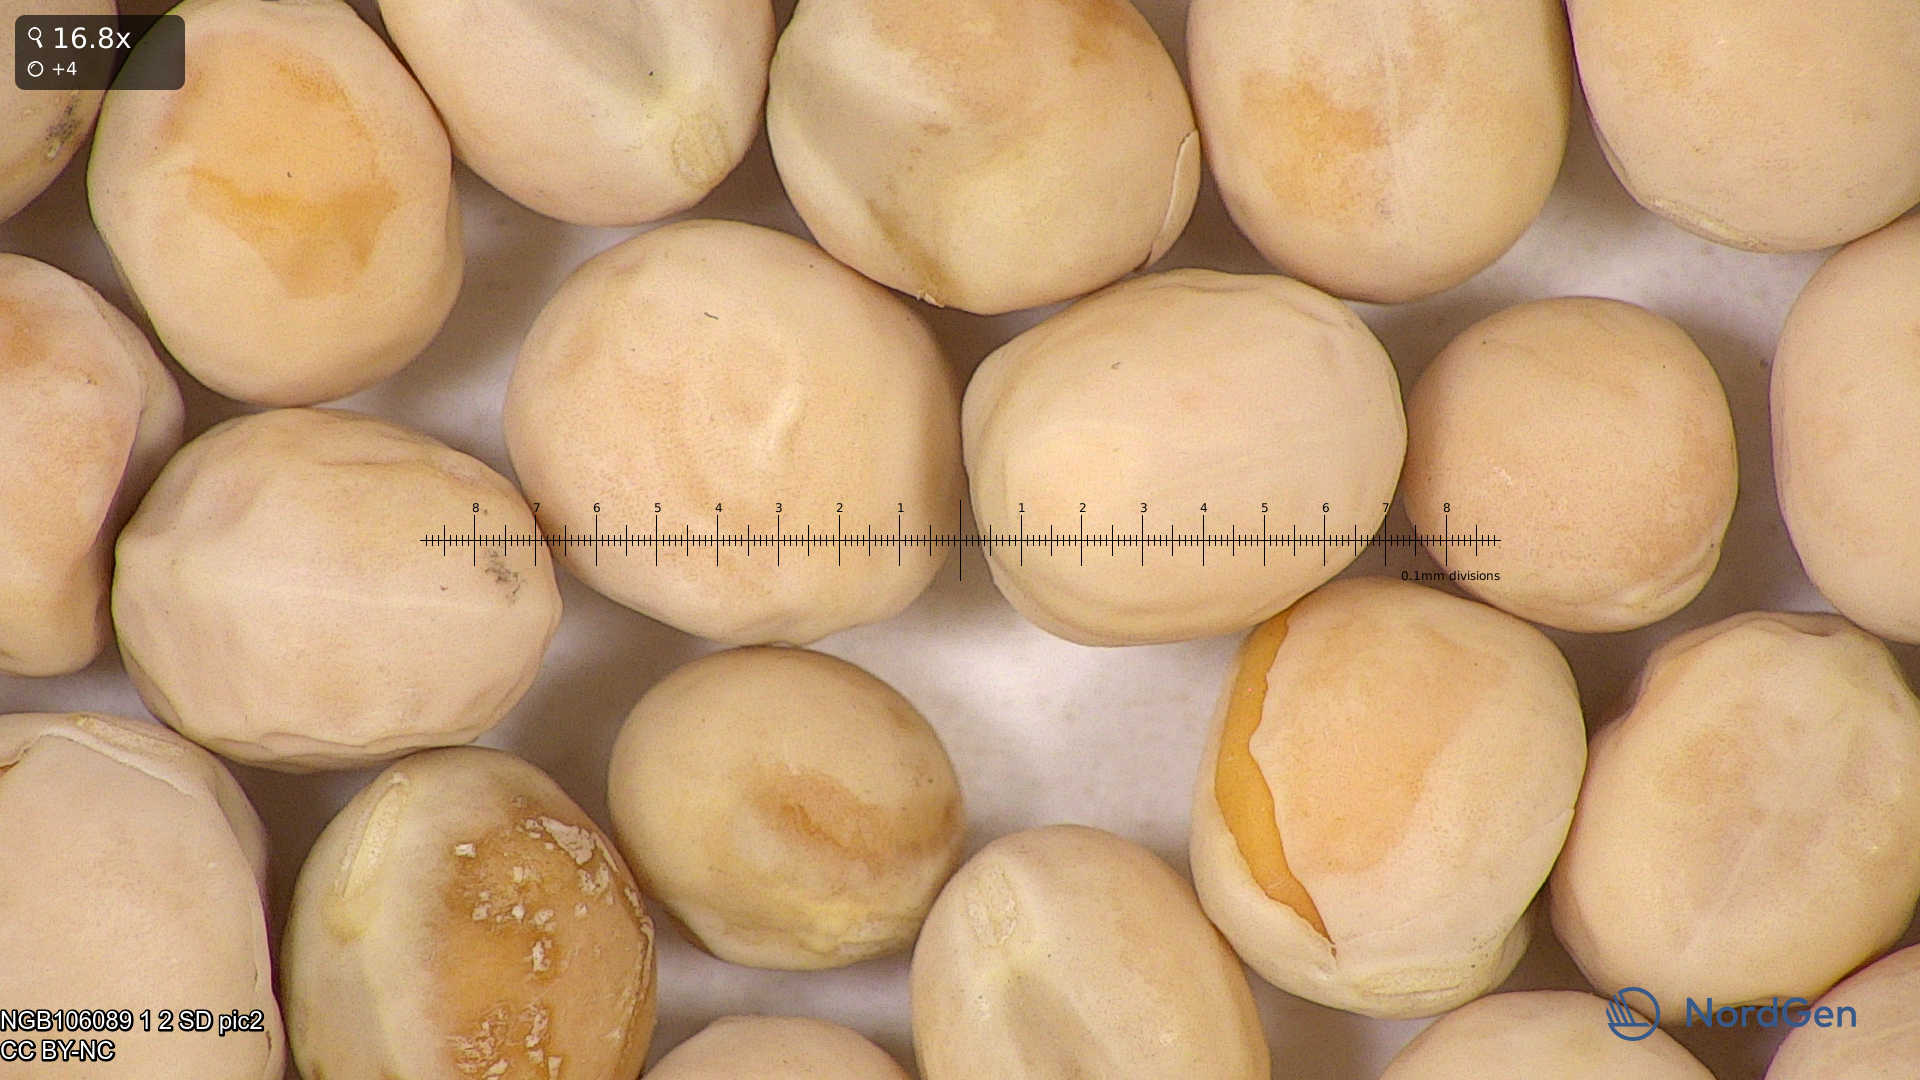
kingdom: Plantae
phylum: Tracheophyta
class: Magnoliopsida
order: Fabales
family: Fabaceae
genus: Lathyrus
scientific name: Lathyrus oleraceus
